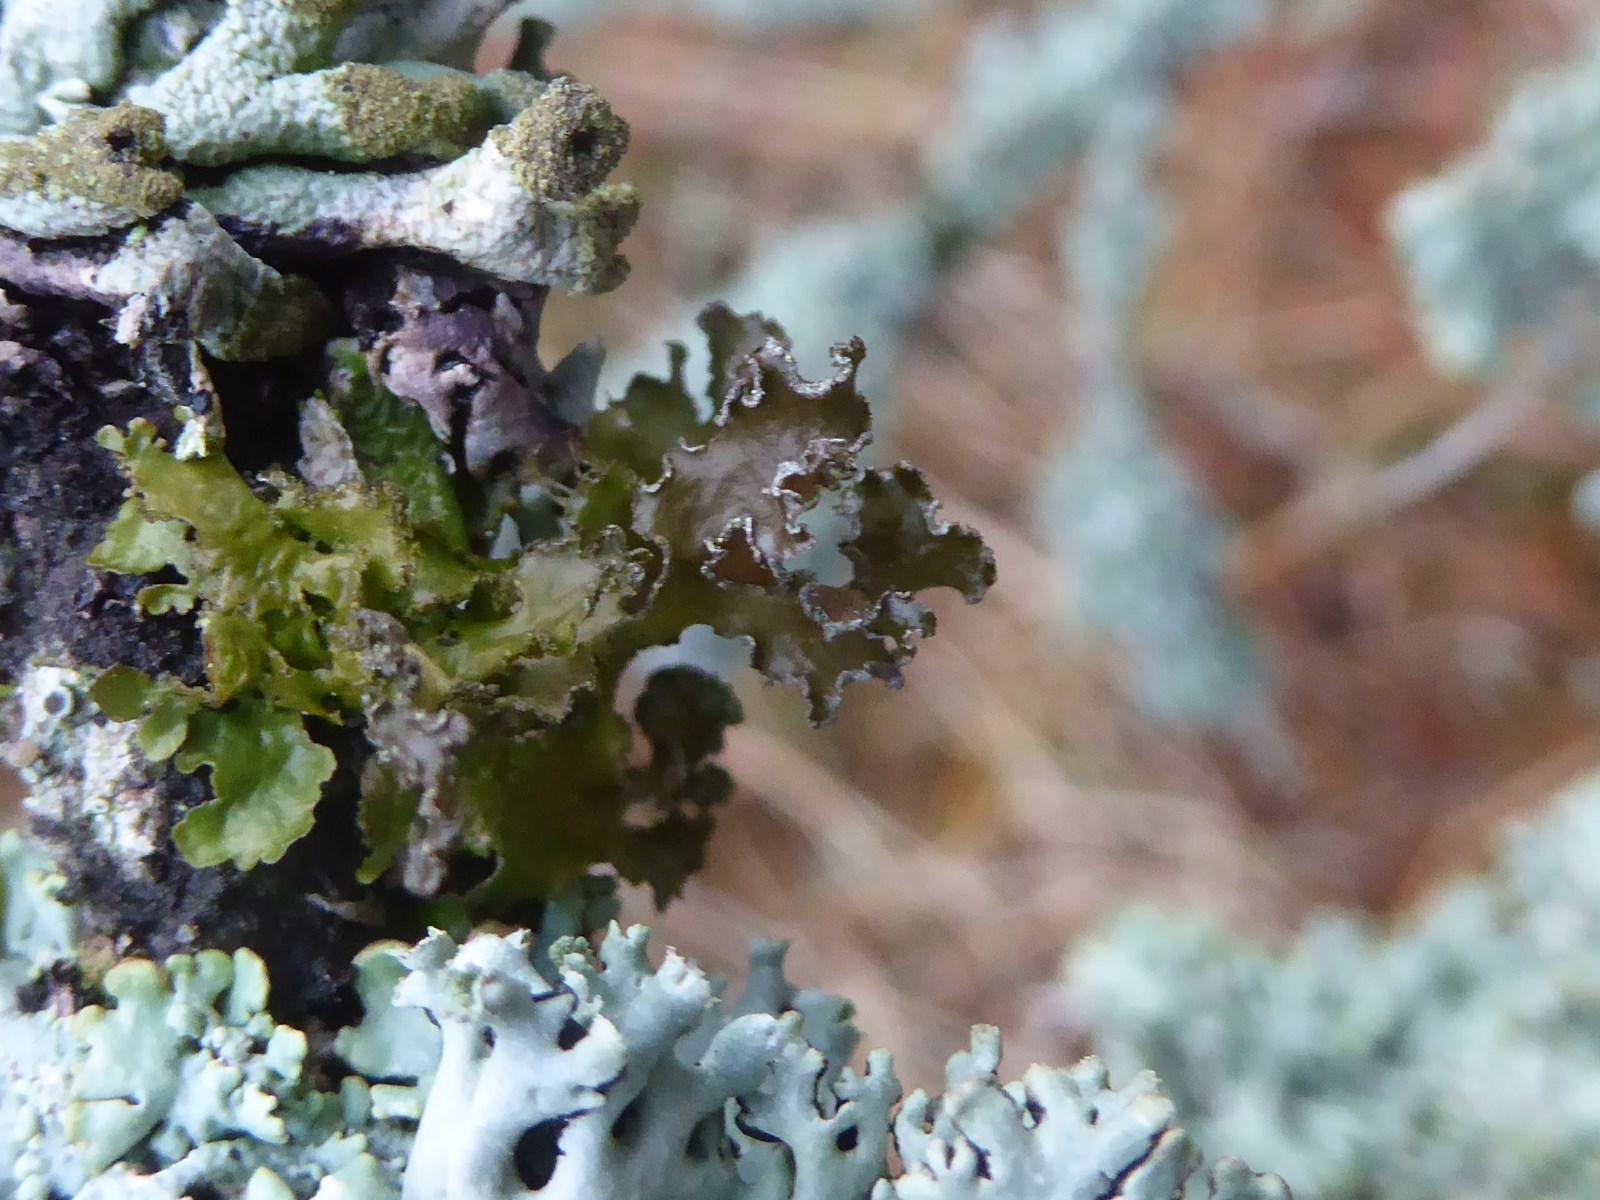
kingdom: Fungi
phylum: Ascomycota
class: Lecanoromycetes
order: Lecanorales
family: Parmeliaceae
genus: Nephromopsis
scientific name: Nephromopsis chlorophylla
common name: olivenbrun kruslav
